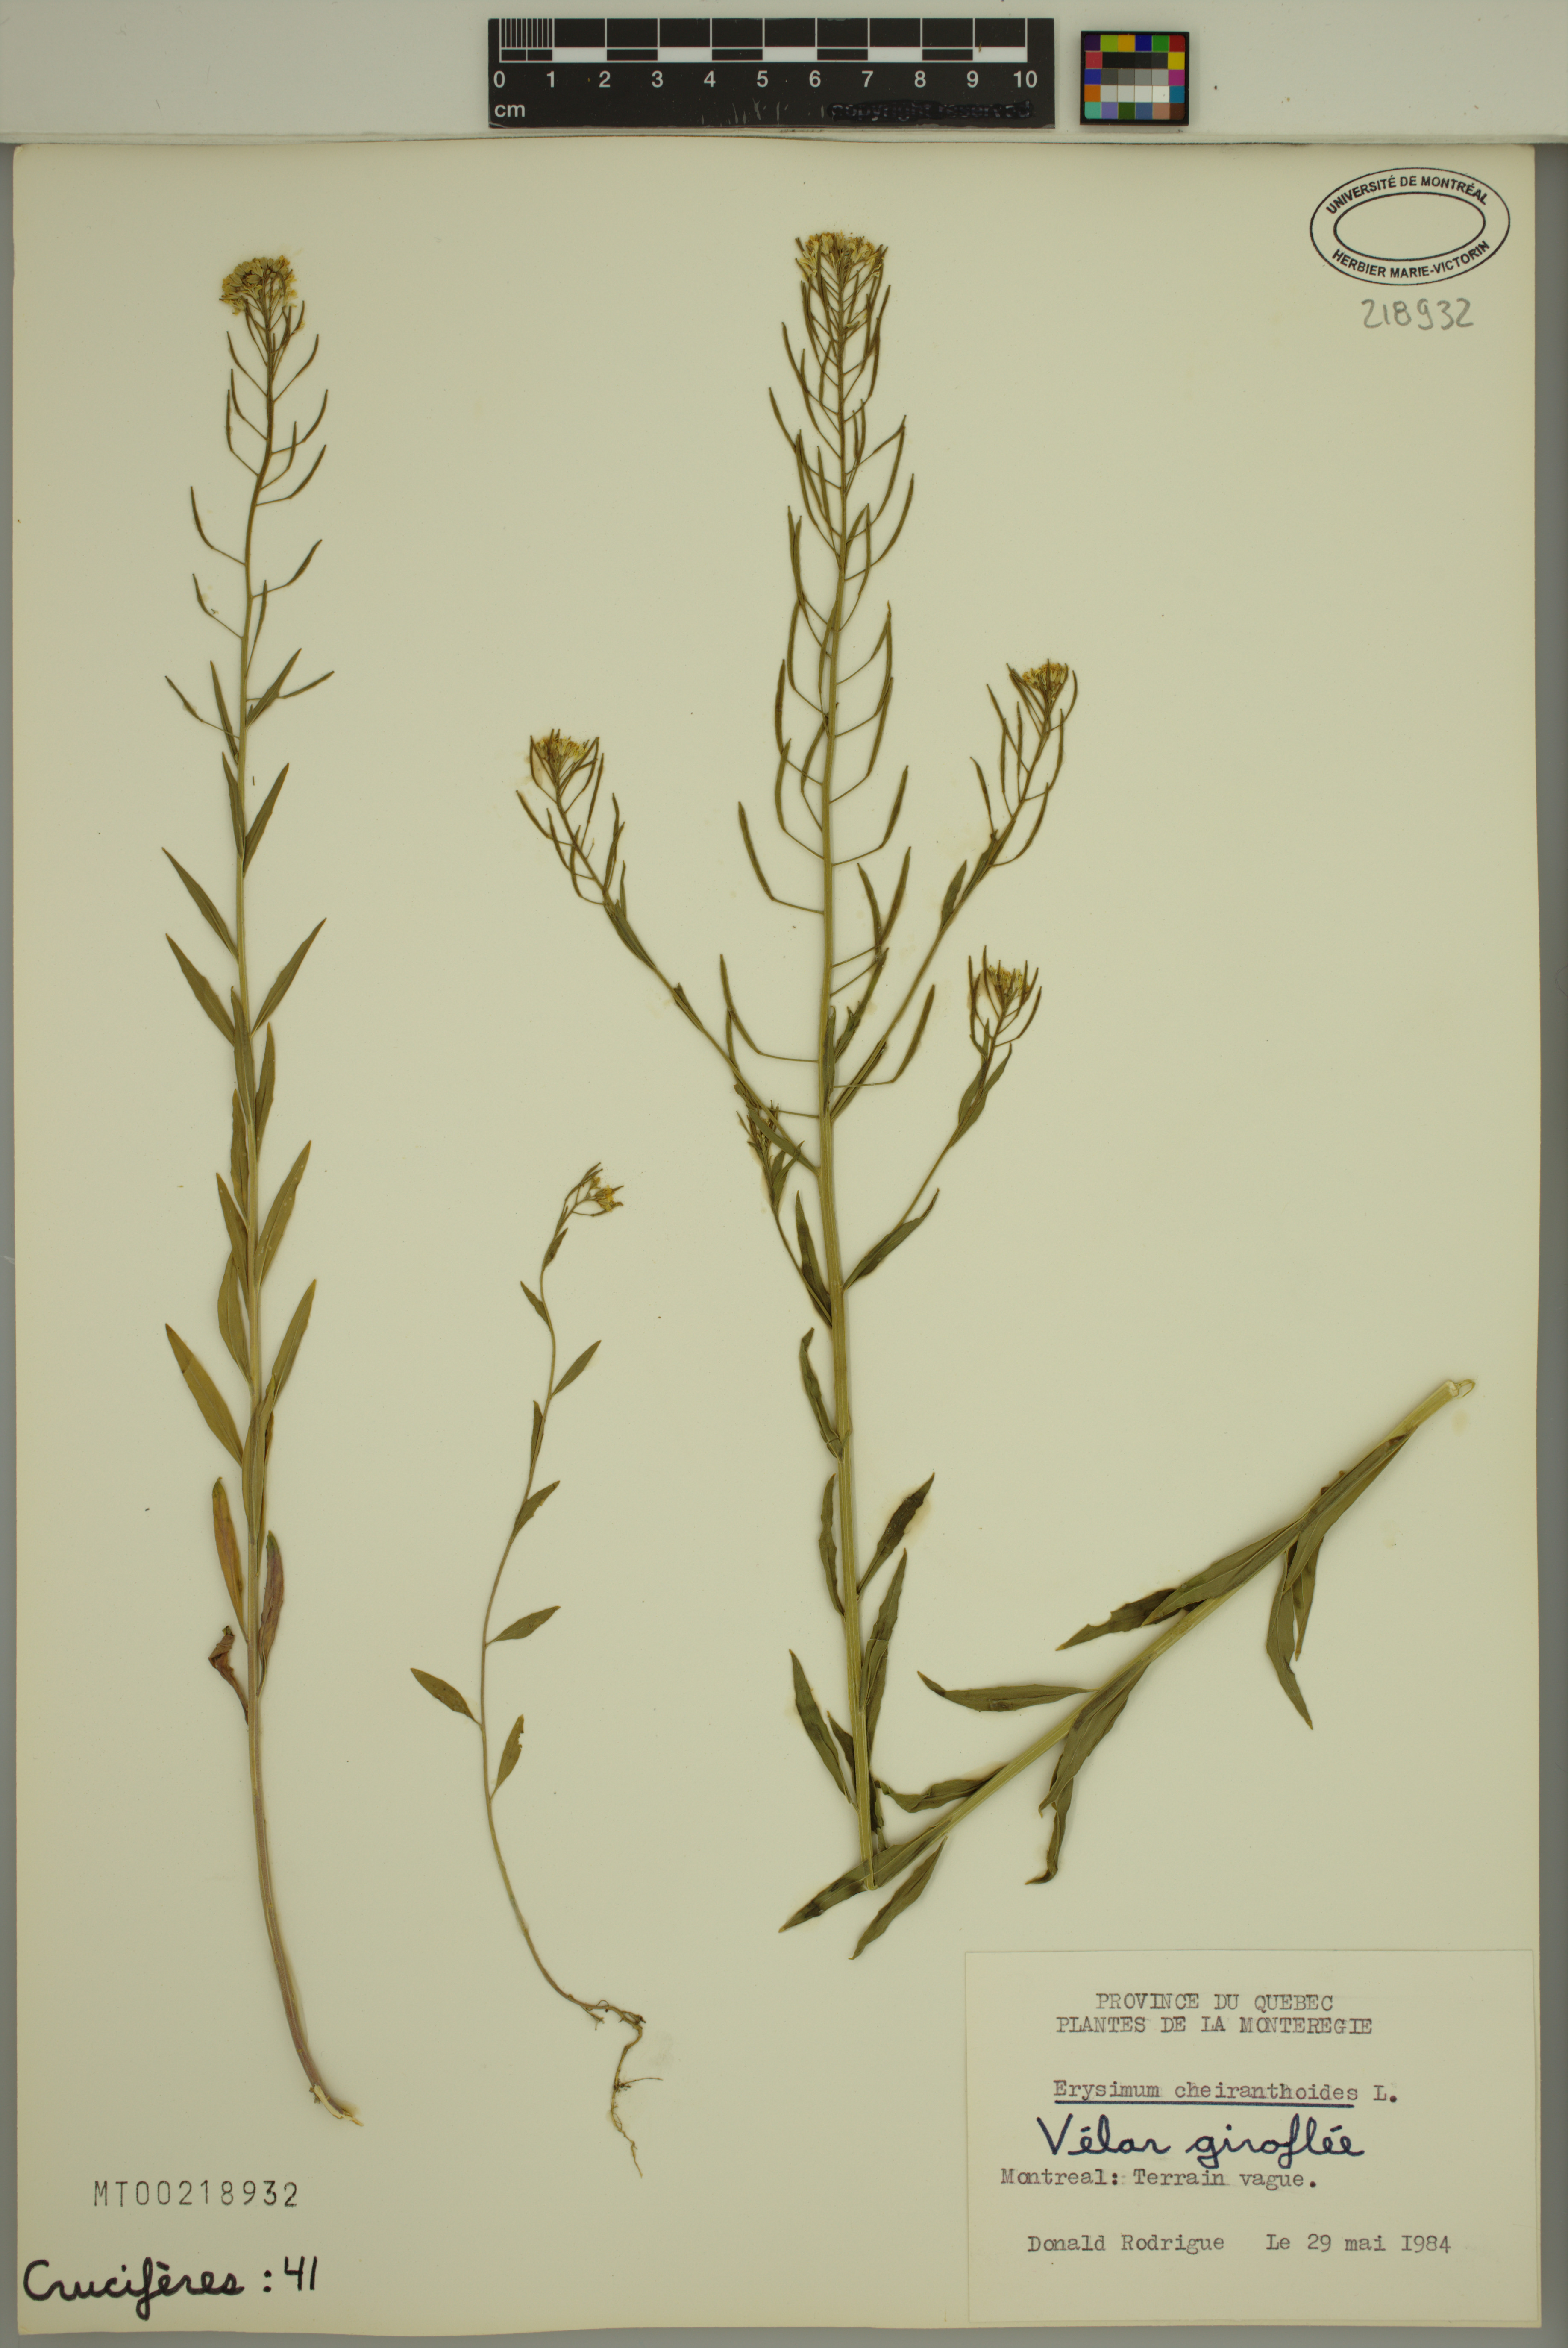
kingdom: Plantae
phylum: Tracheophyta
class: Magnoliopsida
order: Brassicales
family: Brassicaceae
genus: Erysimum
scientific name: Erysimum cheiranthoides
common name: Treacle mustard
